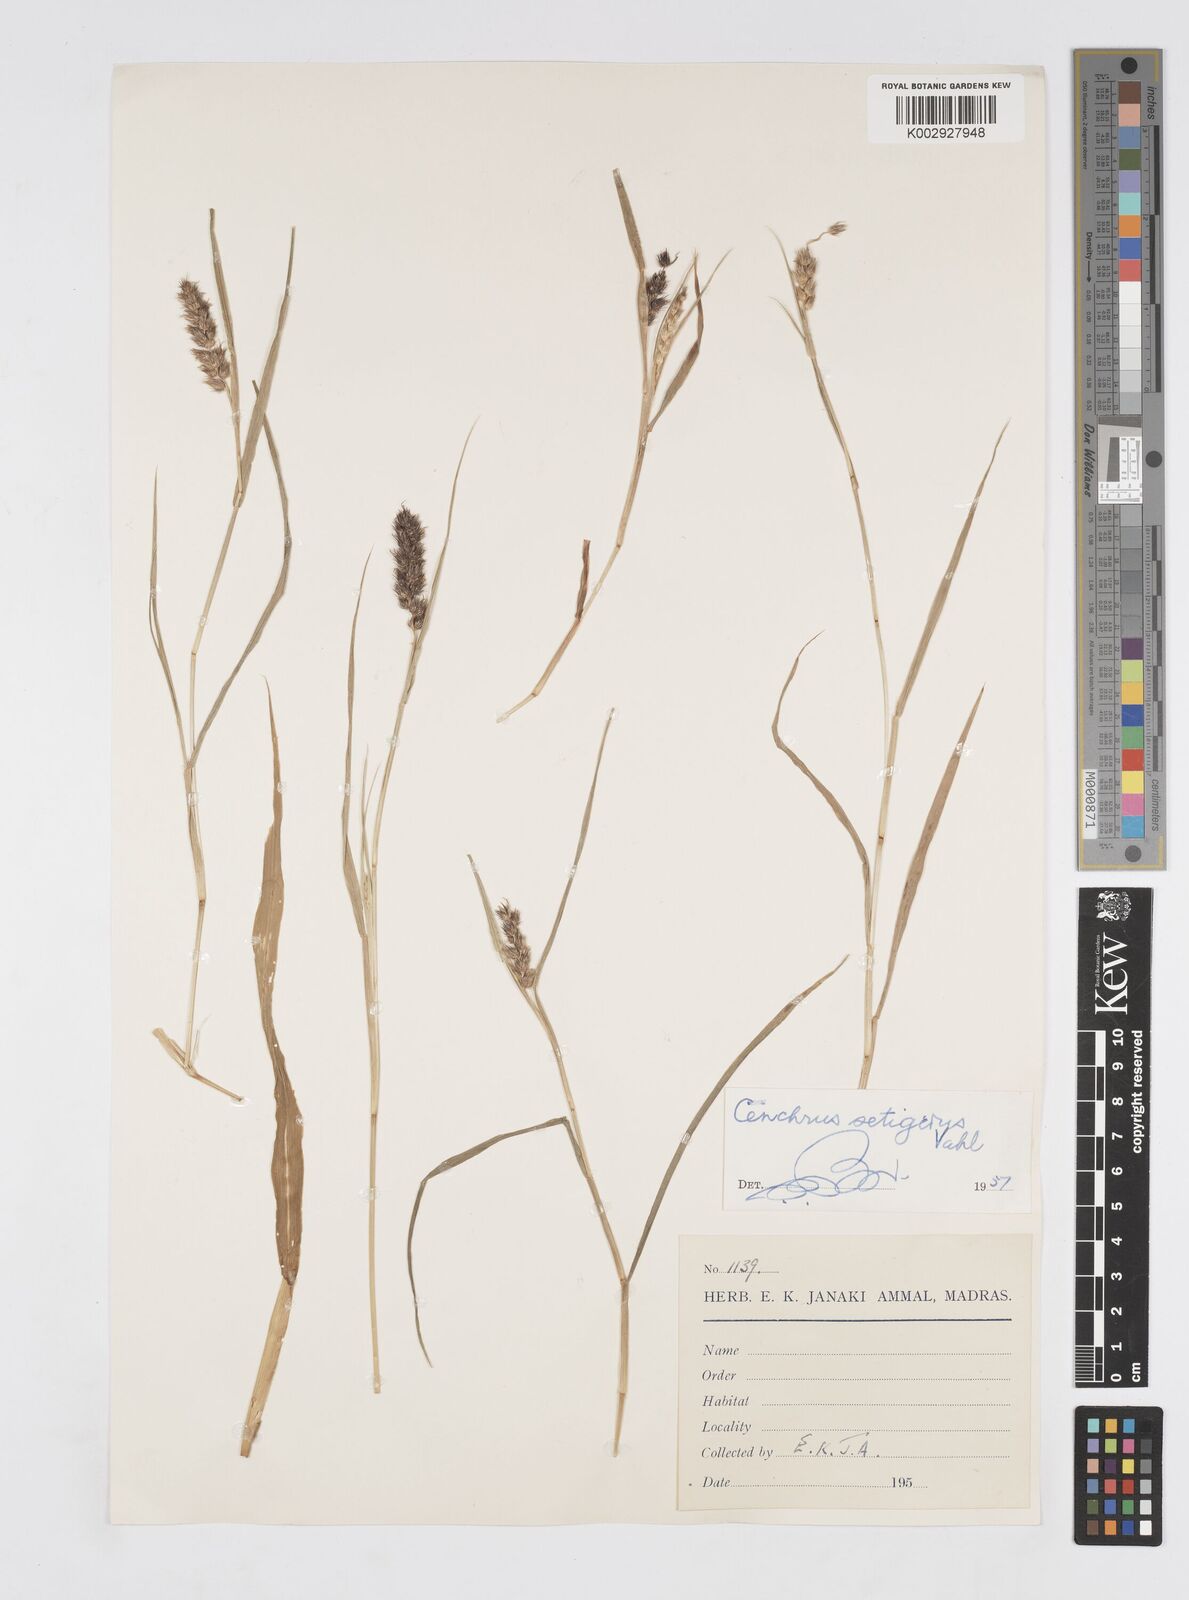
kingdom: Plantae
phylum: Tracheophyta
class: Liliopsida
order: Poales
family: Poaceae
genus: Cenchrus
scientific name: Cenchrus setigerus
